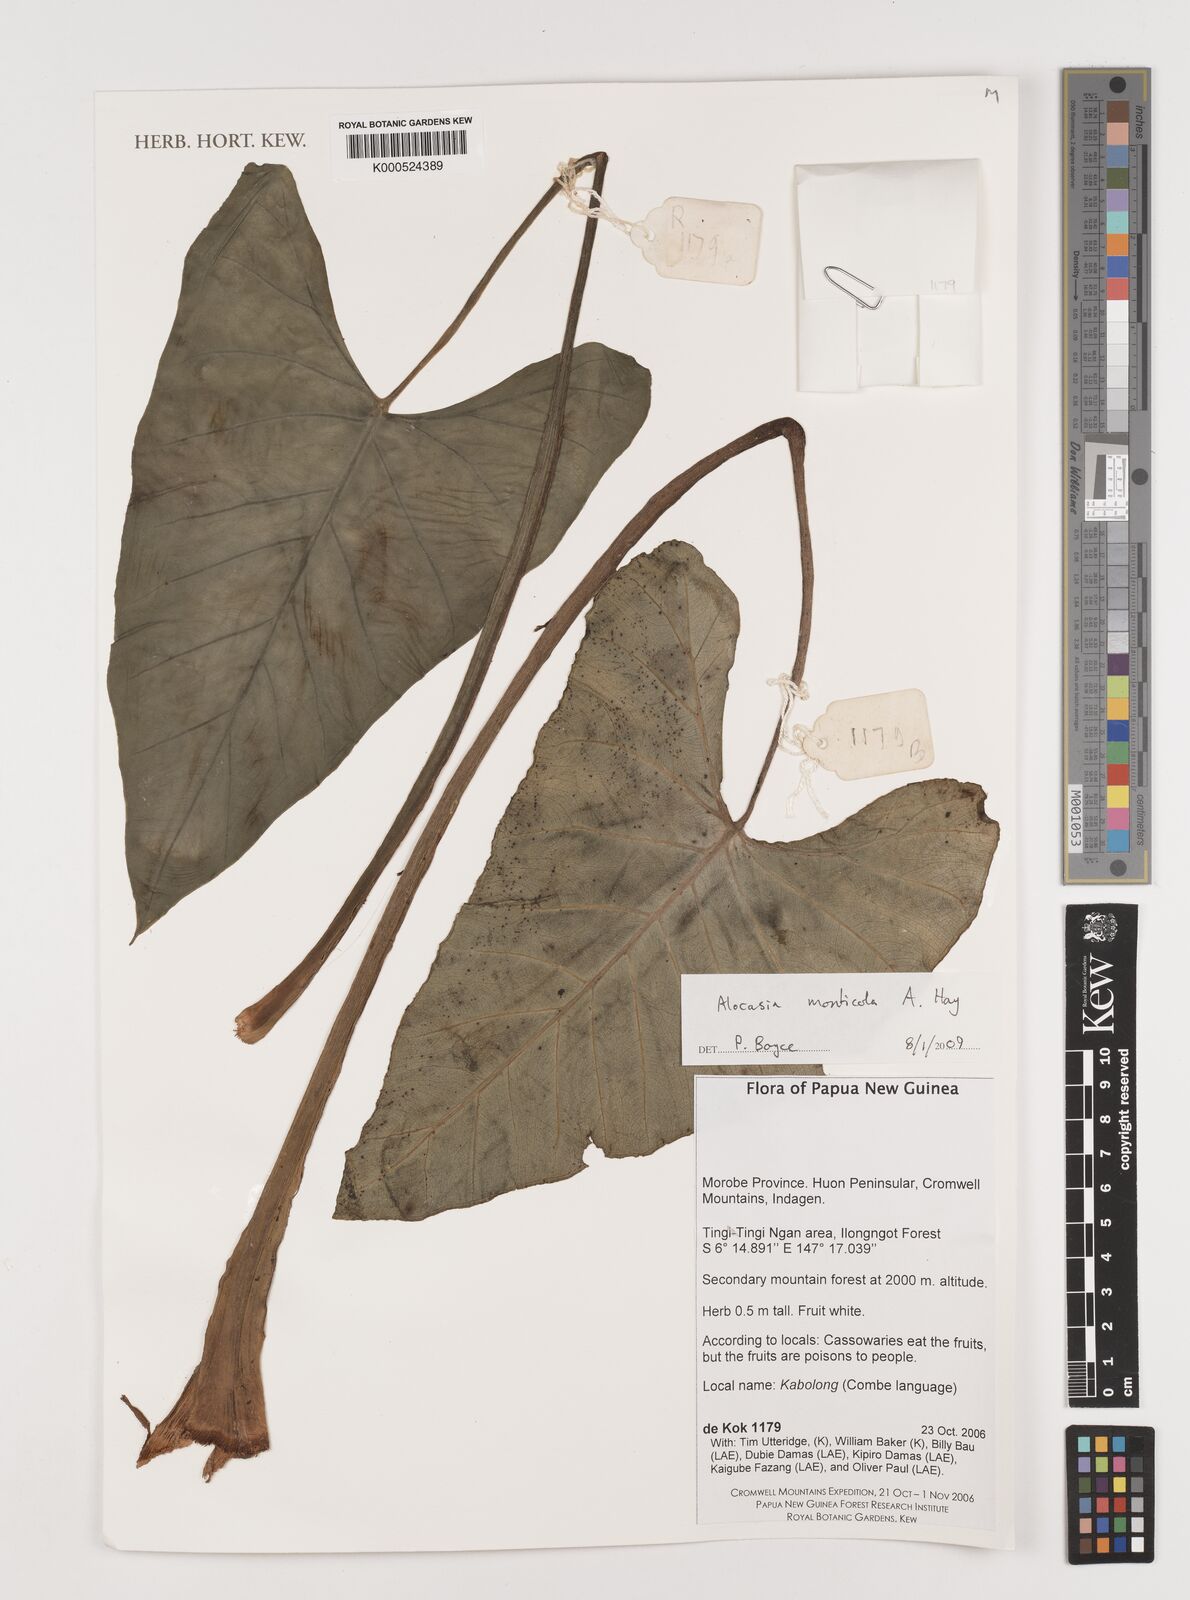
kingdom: Plantae
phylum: Tracheophyta
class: Liliopsida
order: Alismatales
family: Araceae
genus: Alocasia
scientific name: Alocasia monticola
